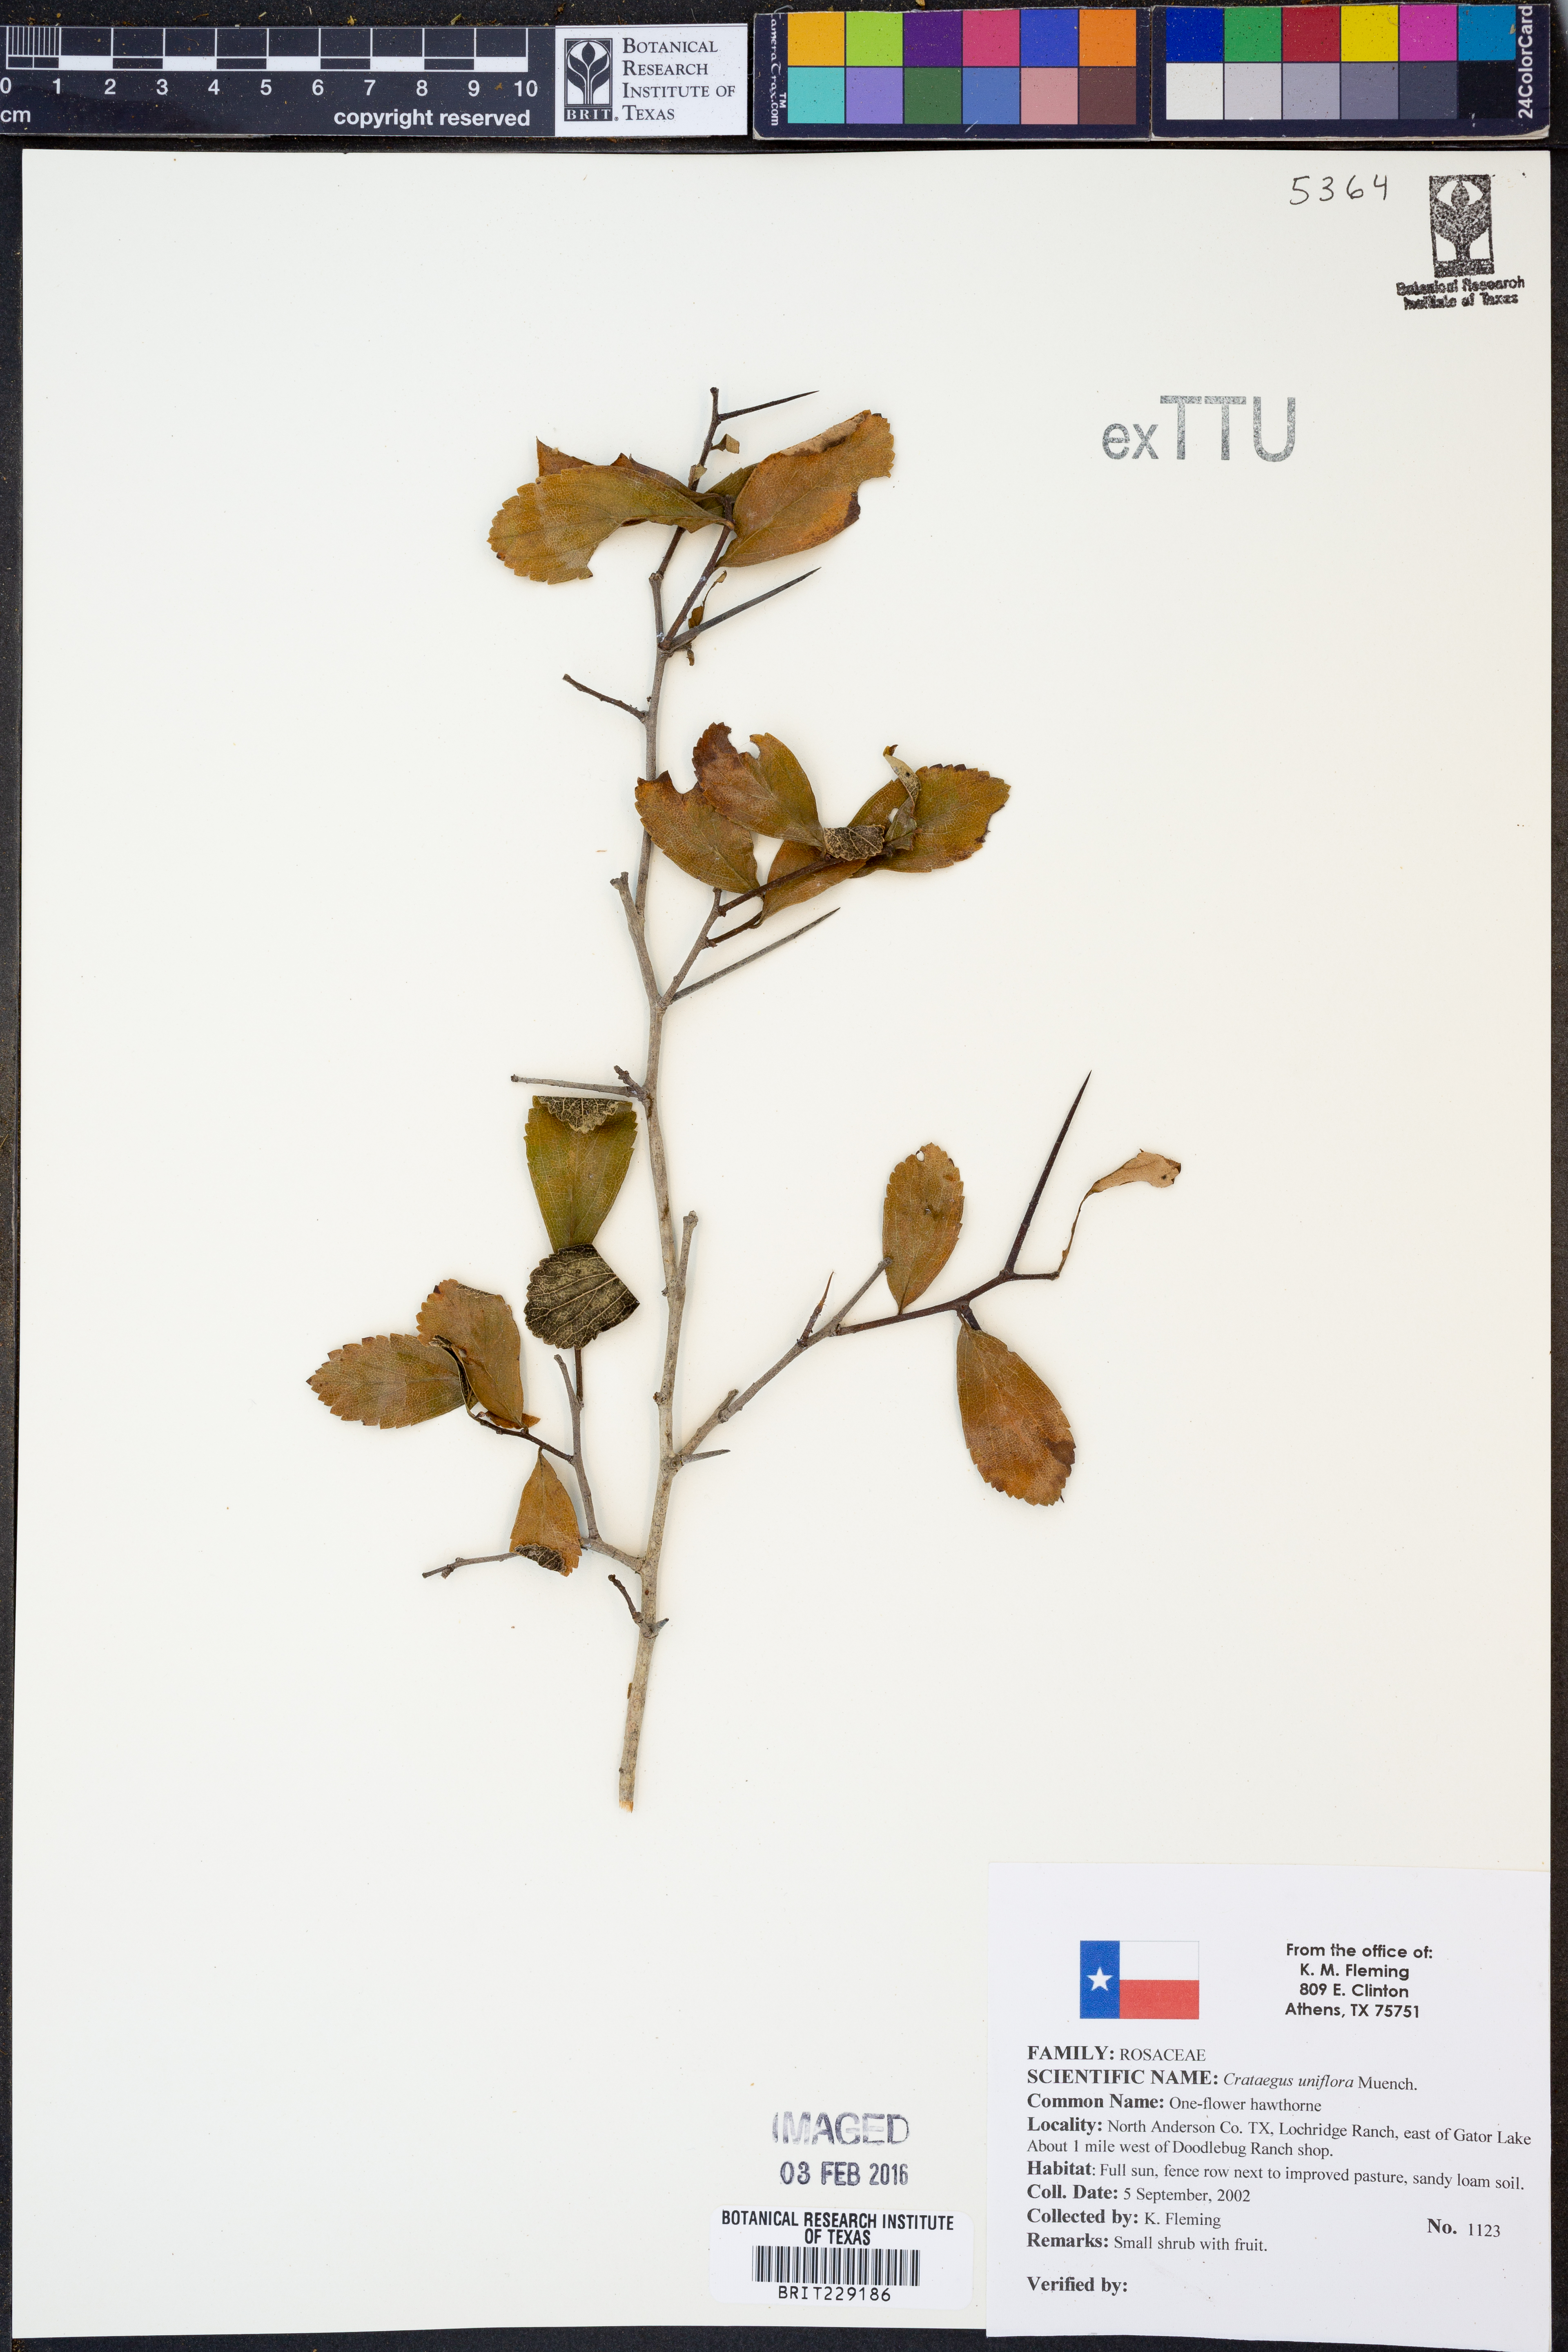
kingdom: Plantae
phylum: Tracheophyta
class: Magnoliopsida
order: Rosales
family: Rosaceae
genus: Crataegus
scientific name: Crataegus uniflora
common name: One-flower hawthorn
